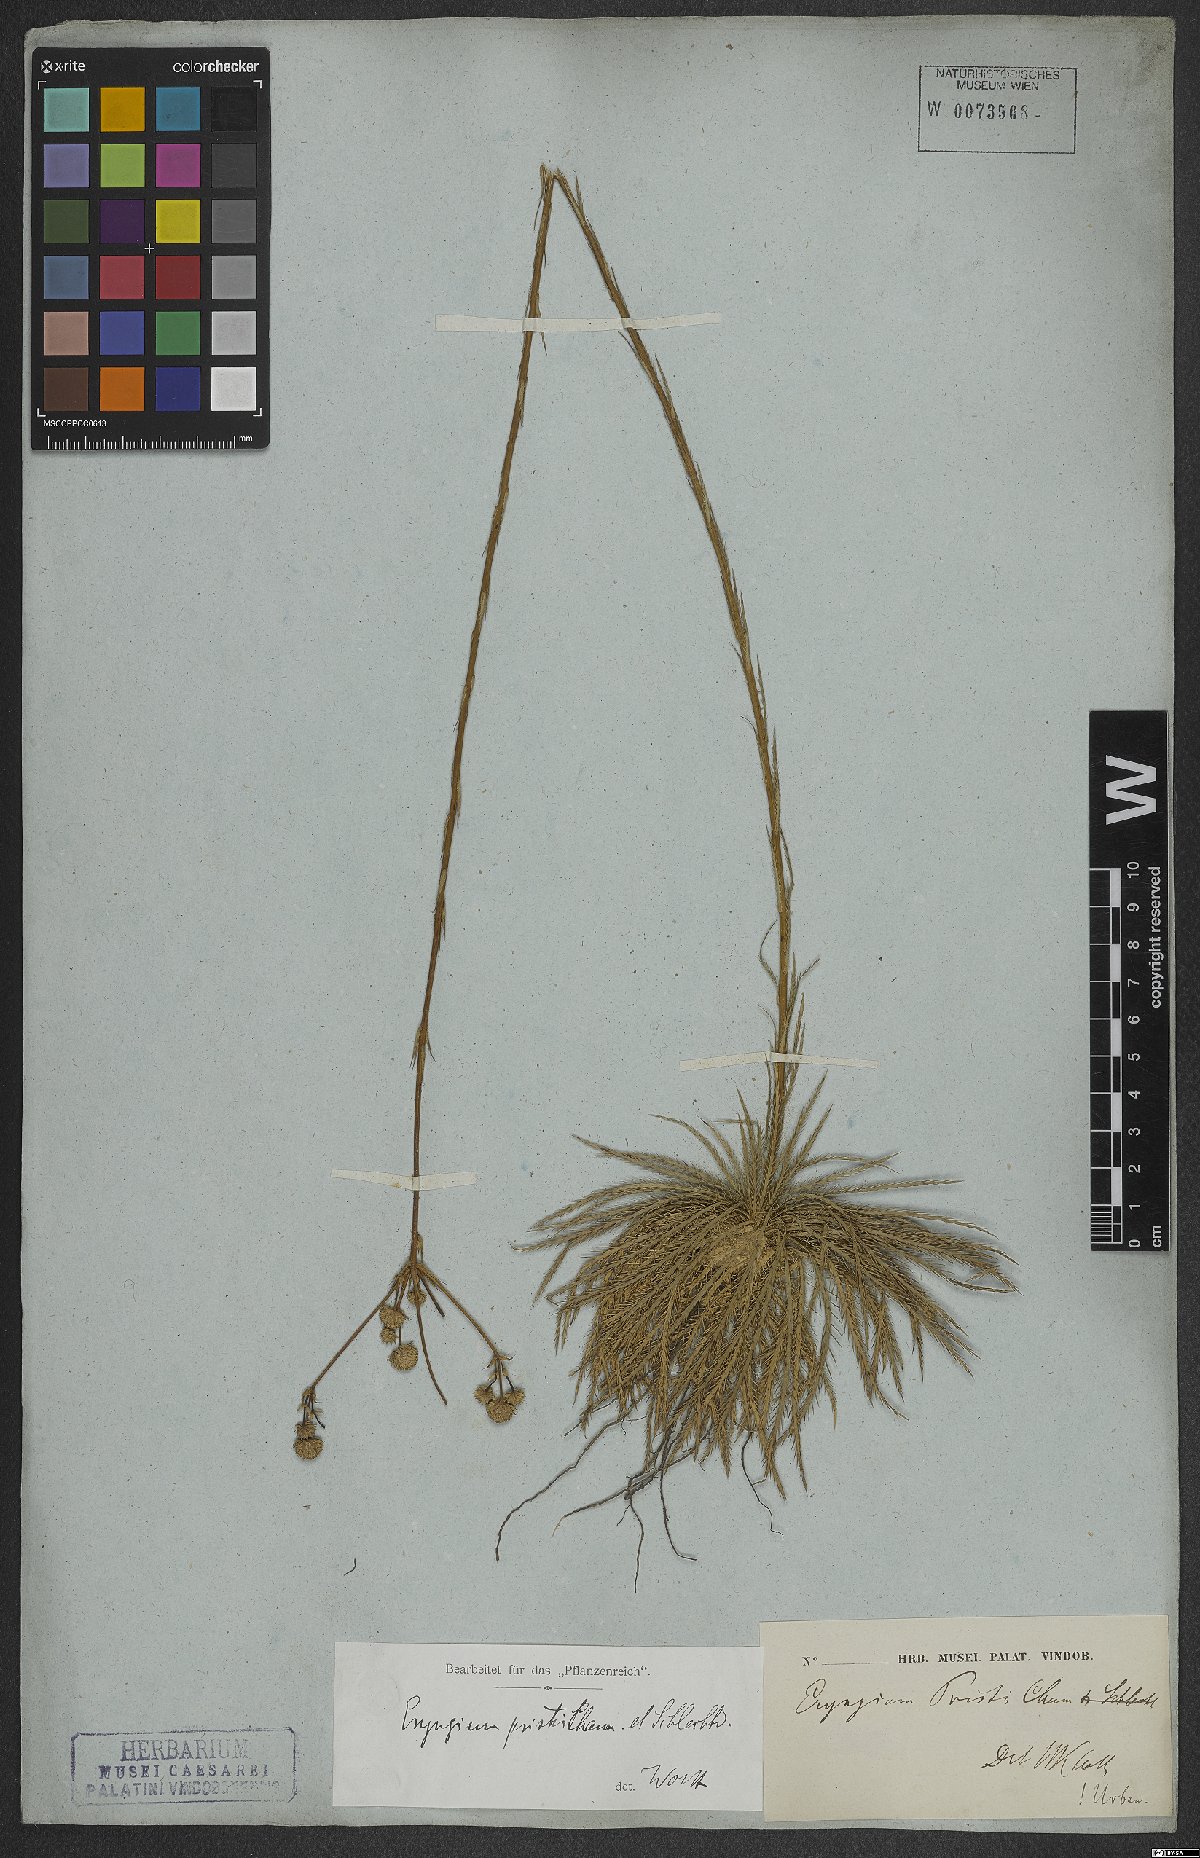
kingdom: Plantae
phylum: Tracheophyta
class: Magnoliopsida
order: Apiales
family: Apiaceae
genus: Eryngium
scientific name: Eryngium pristis
